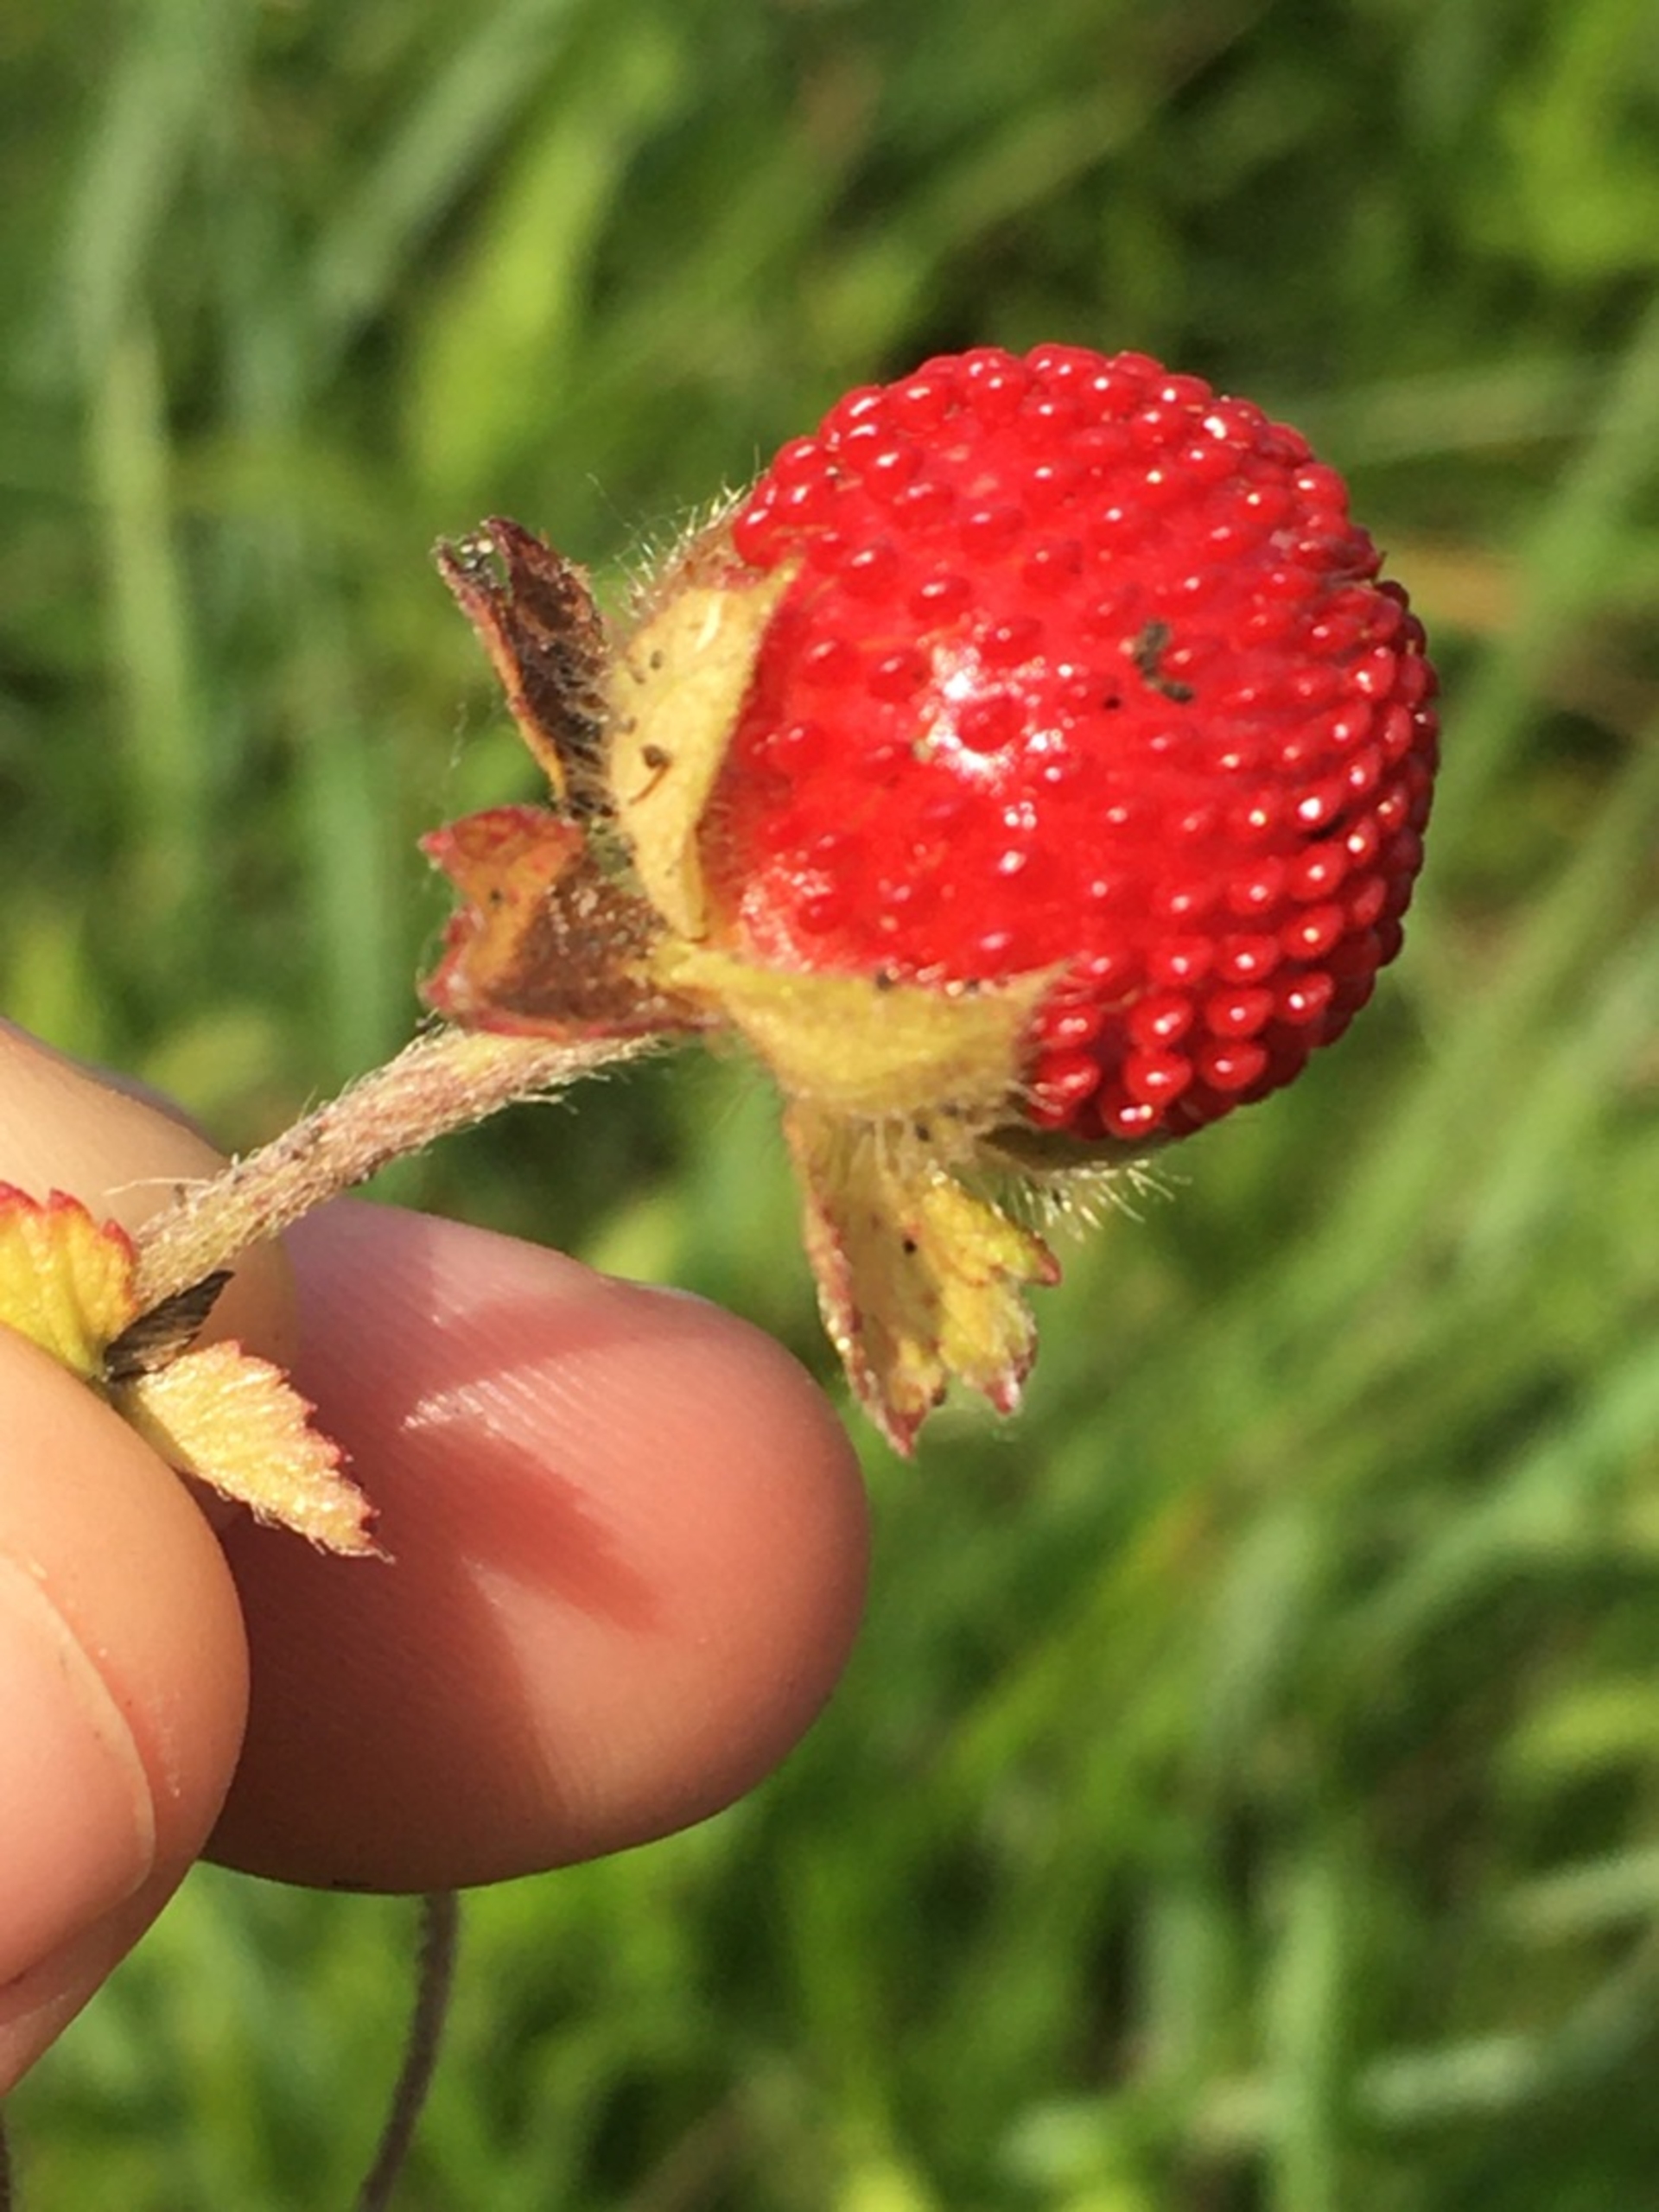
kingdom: Plantae
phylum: Tracheophyta
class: Magnoliopsida
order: Rosales
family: Rosaceae
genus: Potentilla
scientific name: Potentilla indica
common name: Indisk jordbær
